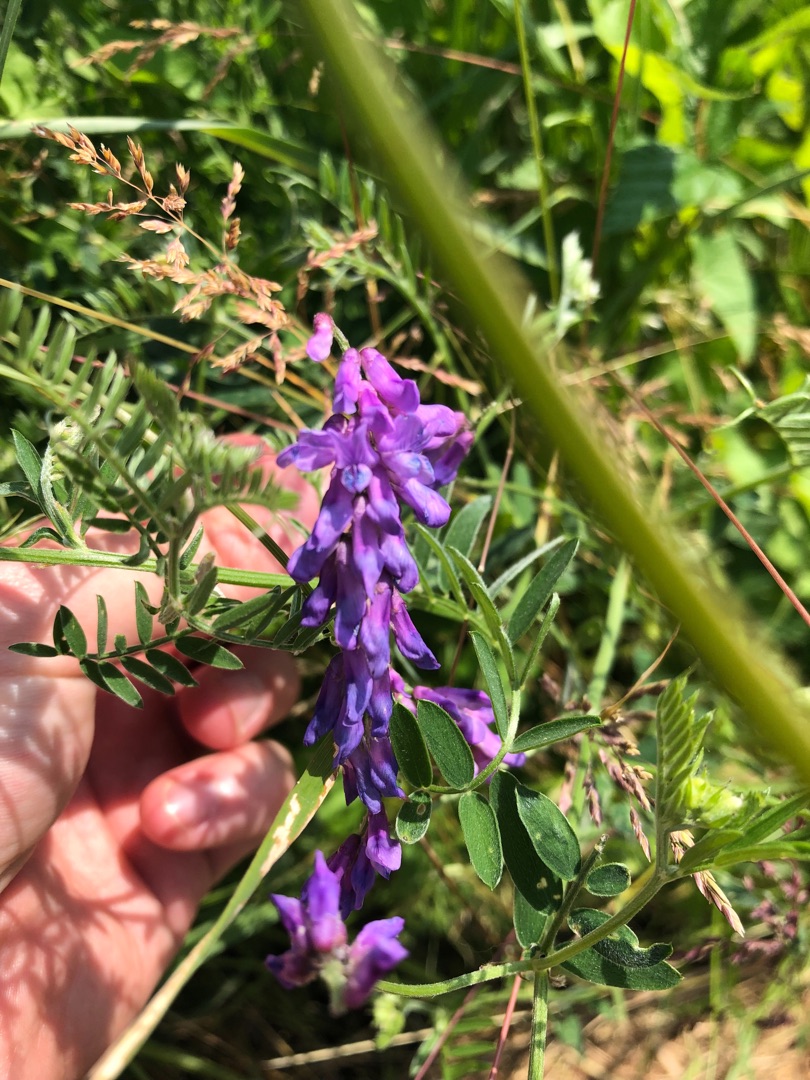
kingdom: Plantae
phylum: Tracheophyta
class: Magnoliopsida
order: Fabales
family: Fabaceae
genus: Vicia
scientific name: Vicia cracca
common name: Muse-vikke
